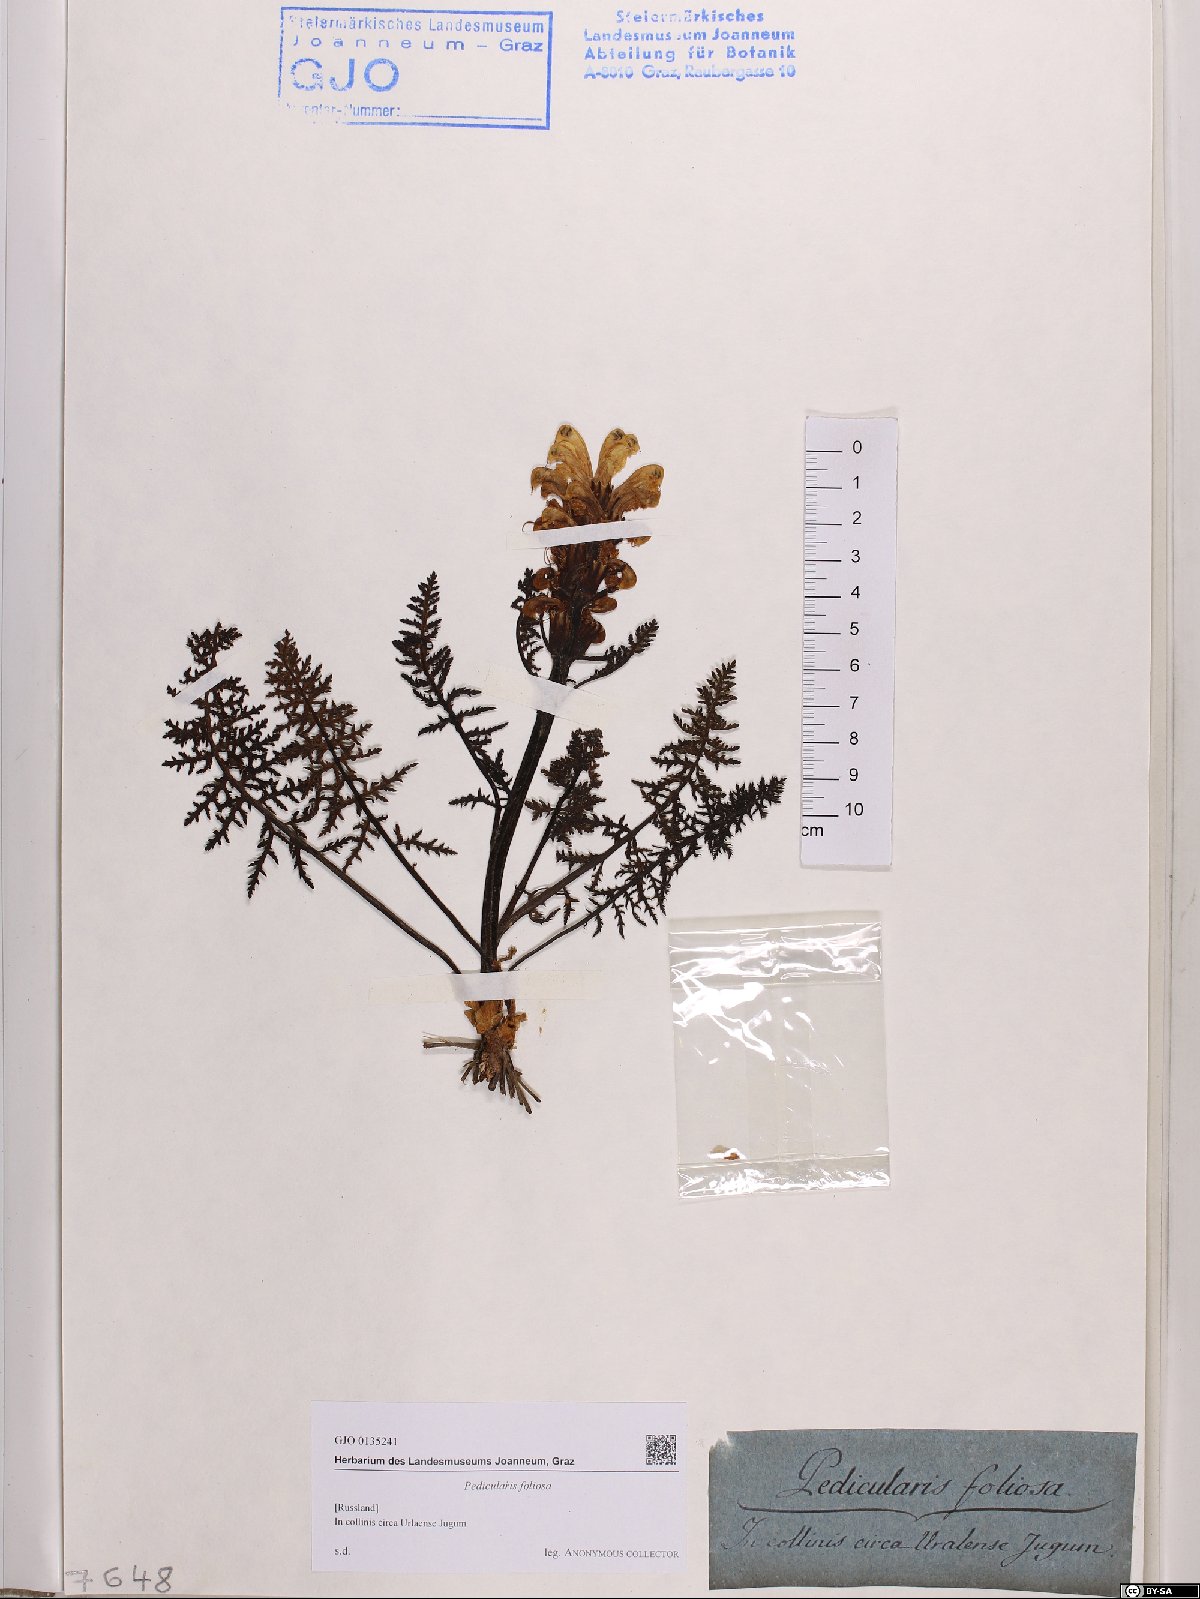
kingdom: Plantae
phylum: Tracheophyta
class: Magnoliopsida
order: Lamiales
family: Orobanchaceae
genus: Pedicularis
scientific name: Pedicularis foliosa
